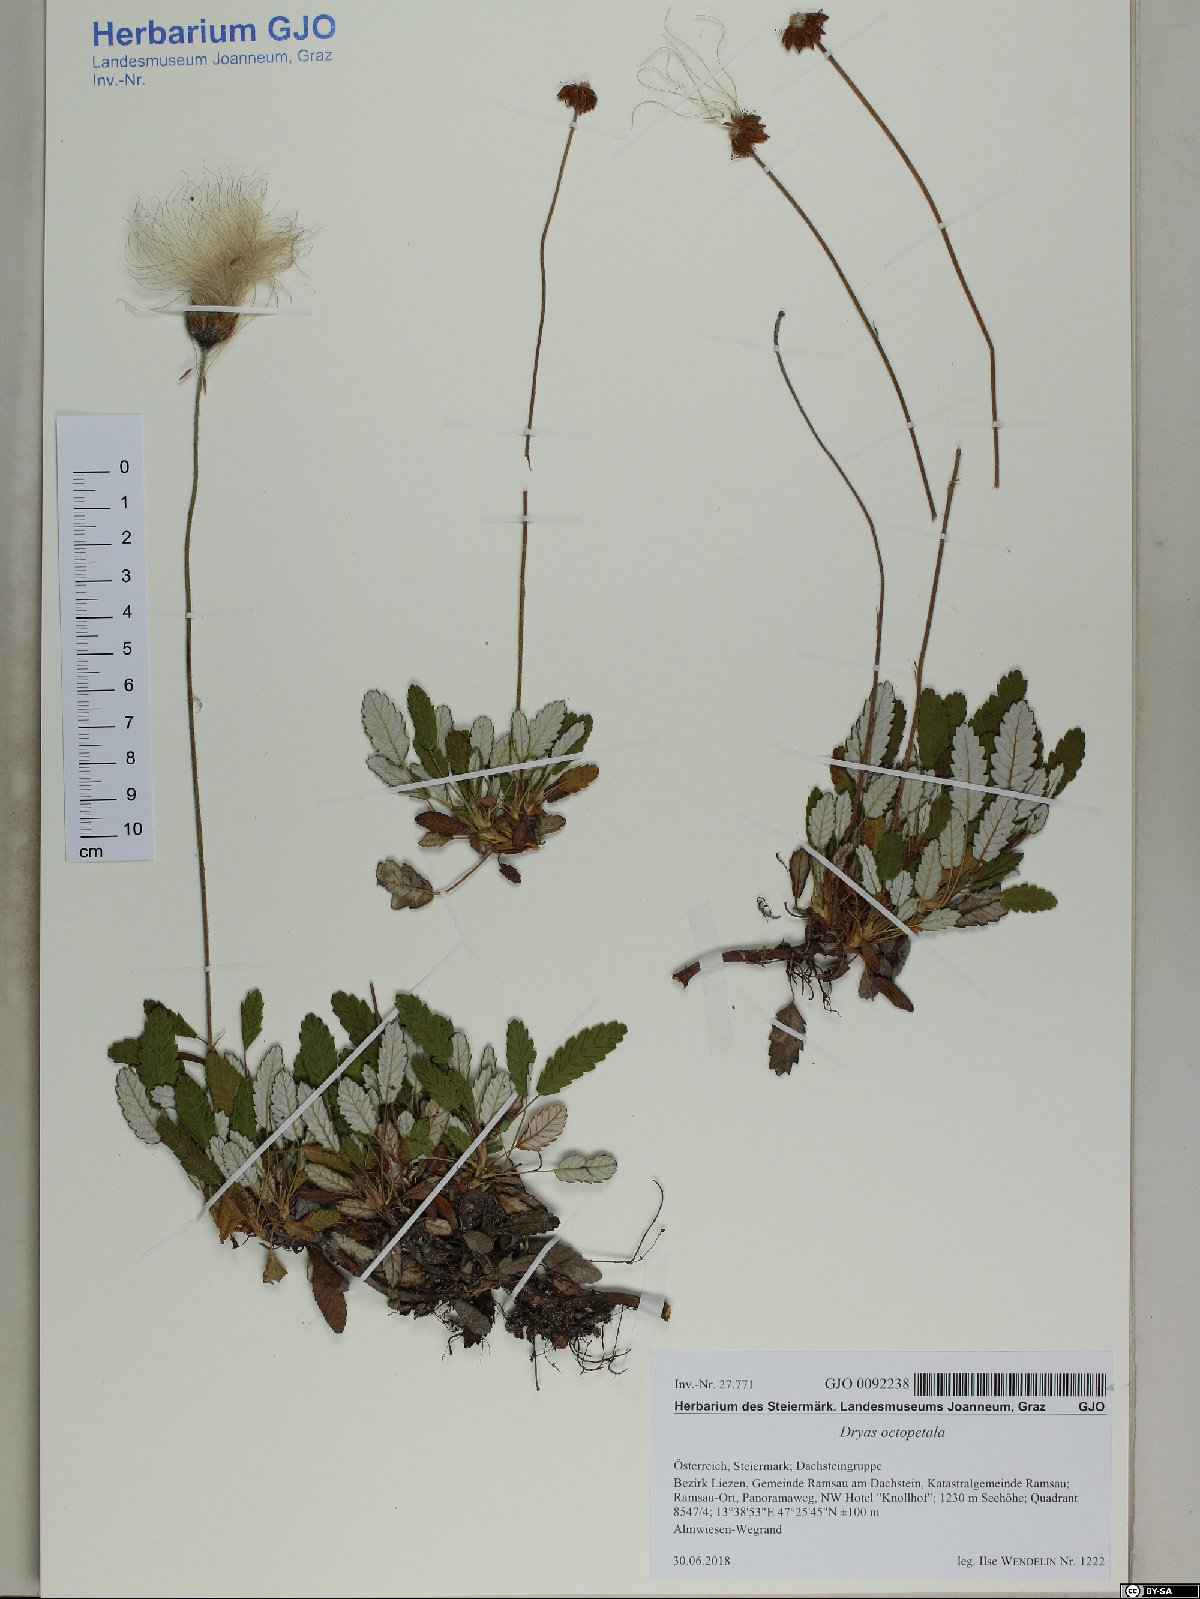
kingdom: Plantae
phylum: Tracheophyta
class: Magnoliopsida
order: Rosales
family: Rosaceae
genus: Dryas
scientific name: Dryas octopetala
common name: Eight-petal mountain-avens
